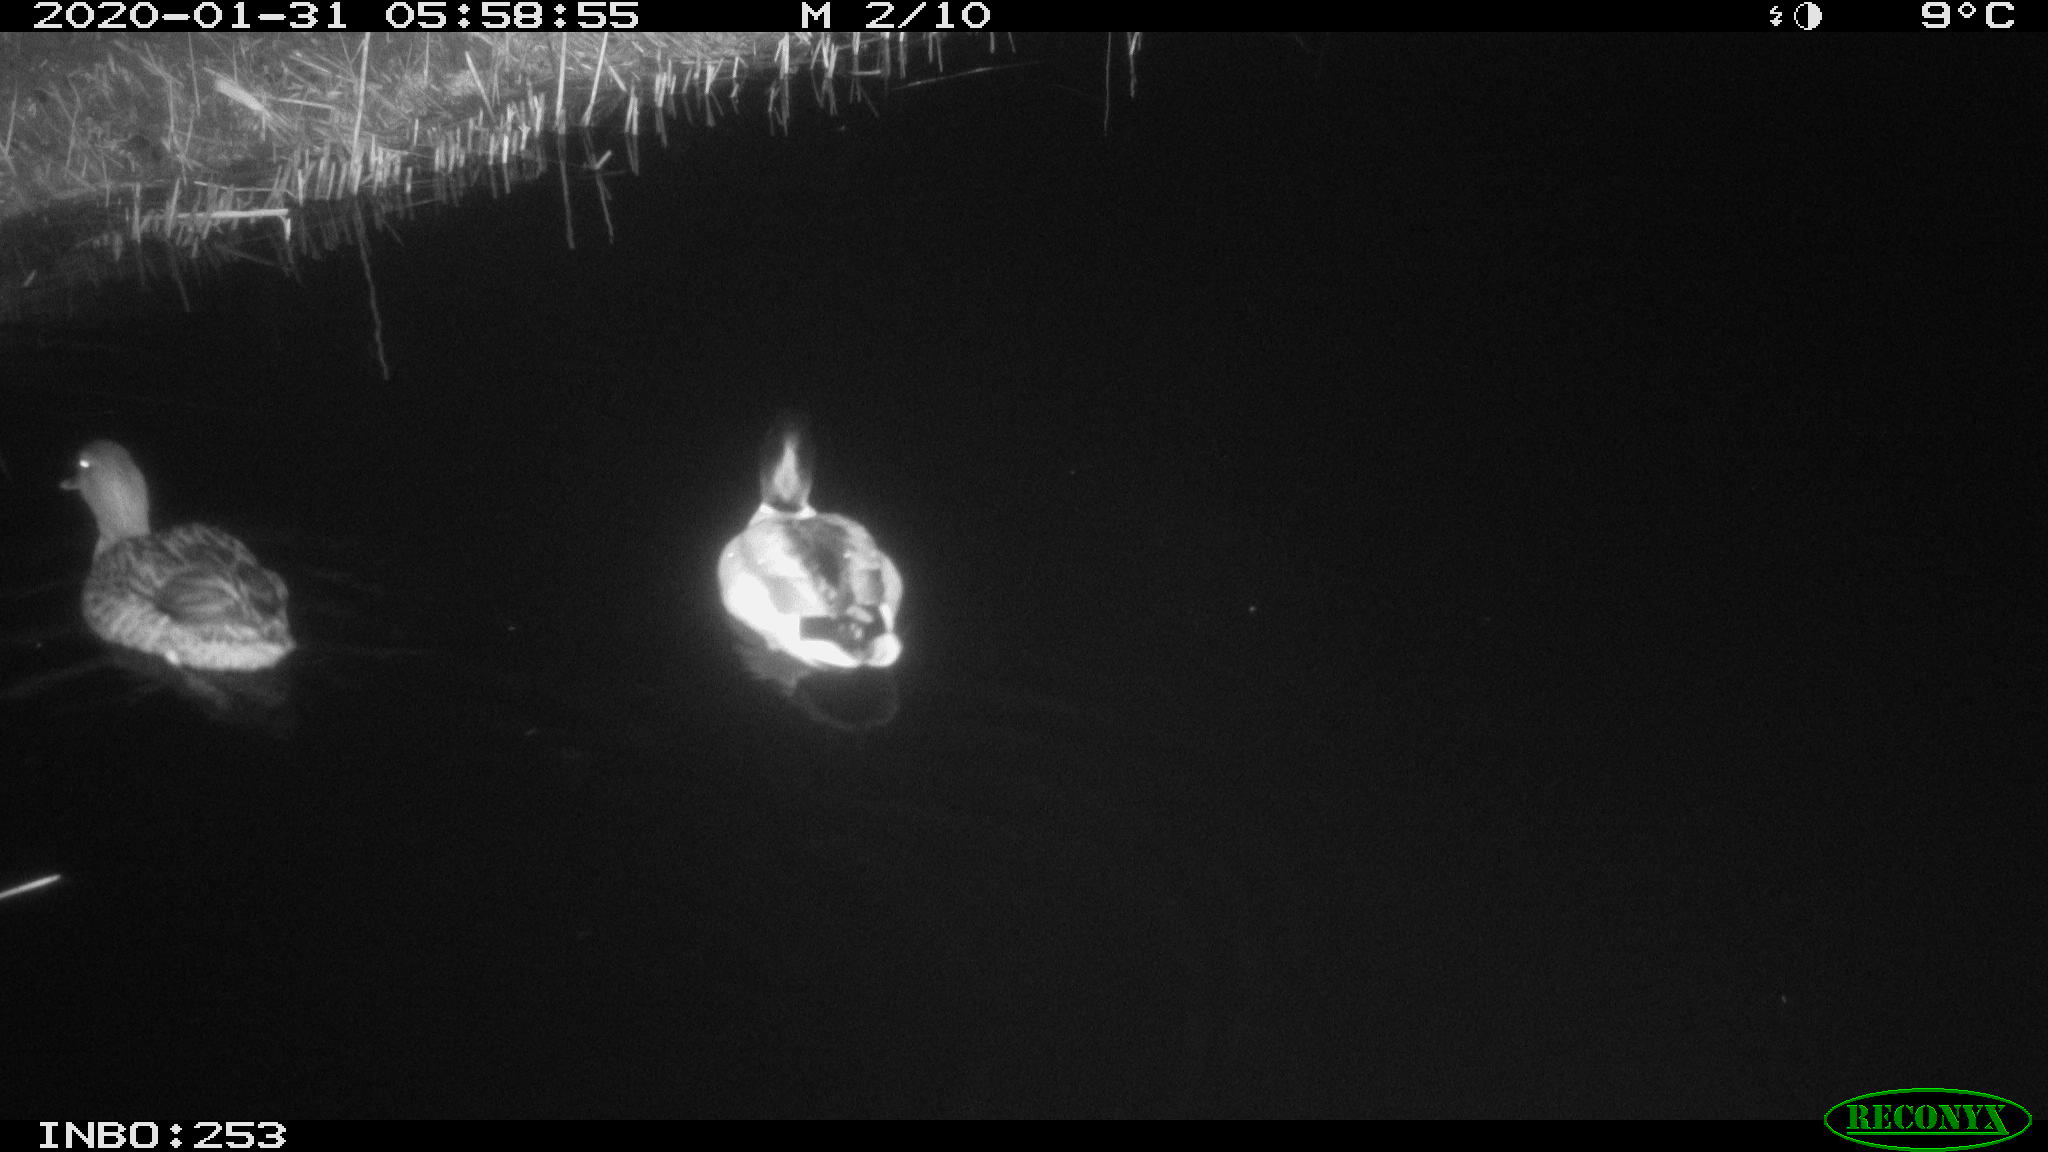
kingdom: Animalia
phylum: Chordata
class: Aves
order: Anseriformes
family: Anatidae
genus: Anas
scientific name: Anas platyrhynchos
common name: Mallard
